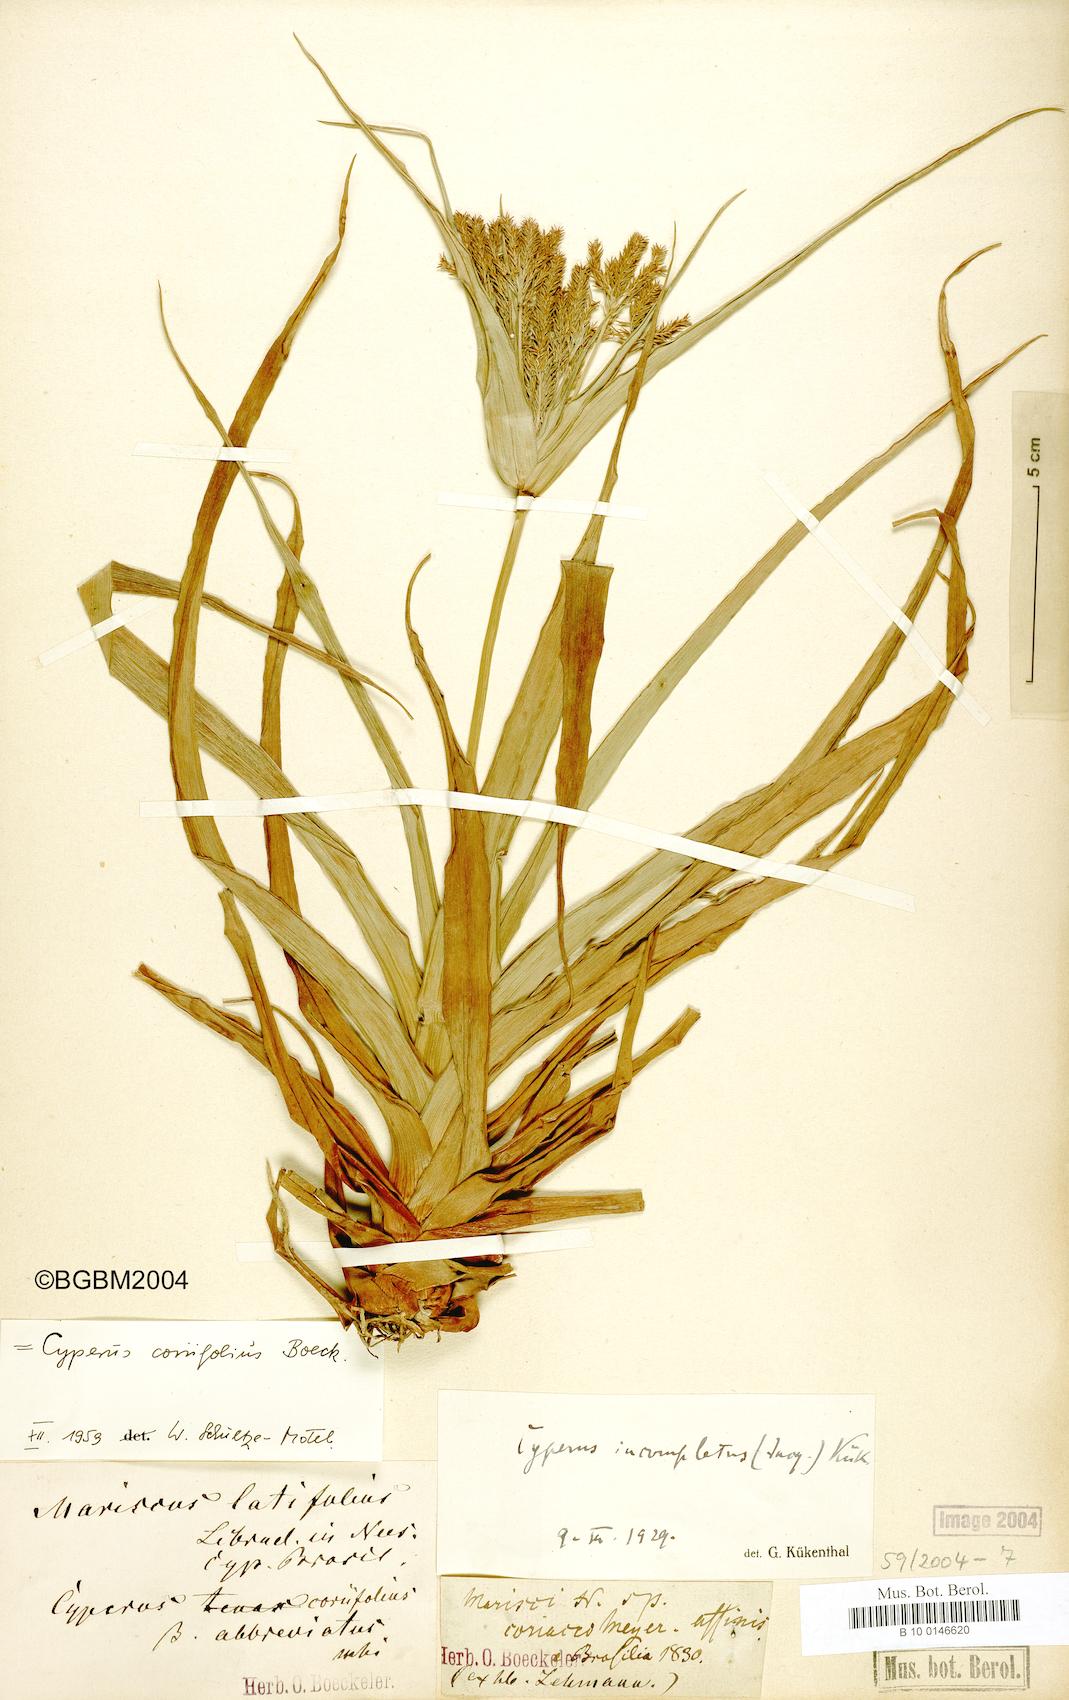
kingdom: Plantae
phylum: Tracheophyta
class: Liliopsida
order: Poales
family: Cyperaceae
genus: Cyperus
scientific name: Cyperus coriifolius
